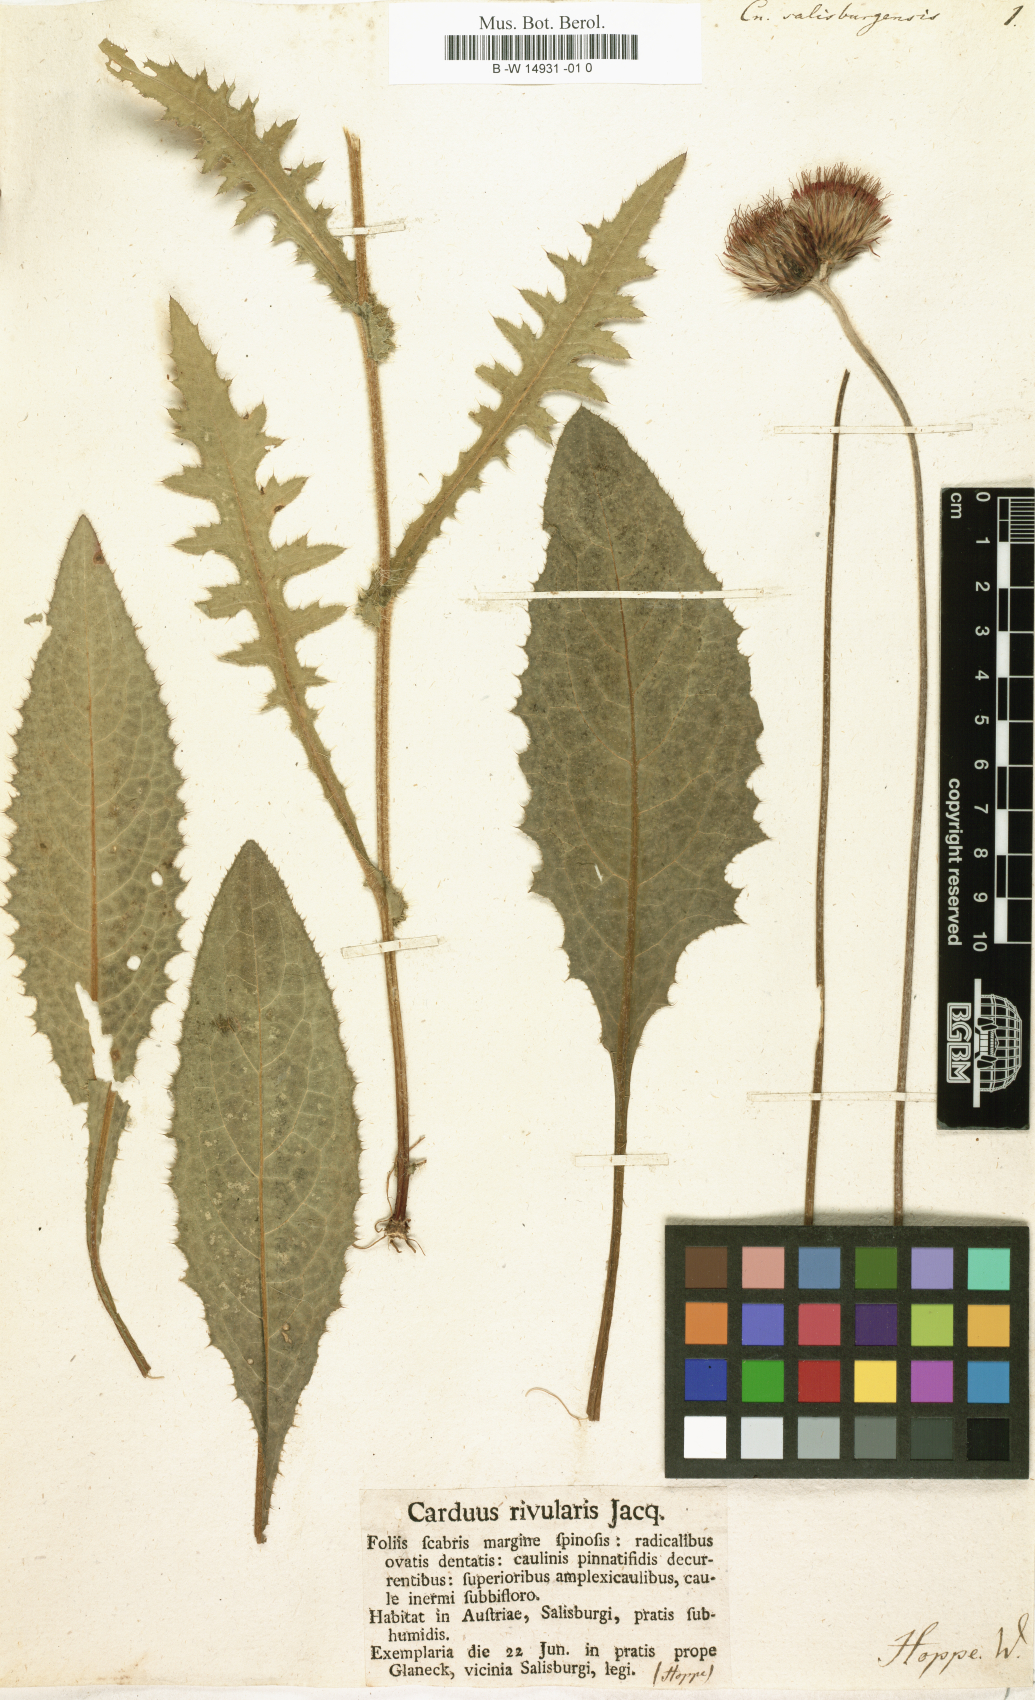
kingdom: Plantae
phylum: Tracheophyta
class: Magnoliopsida
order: Asterales
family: Asteraceae
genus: Cirsium
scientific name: Cirsium rivulare
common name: Brook thistle
